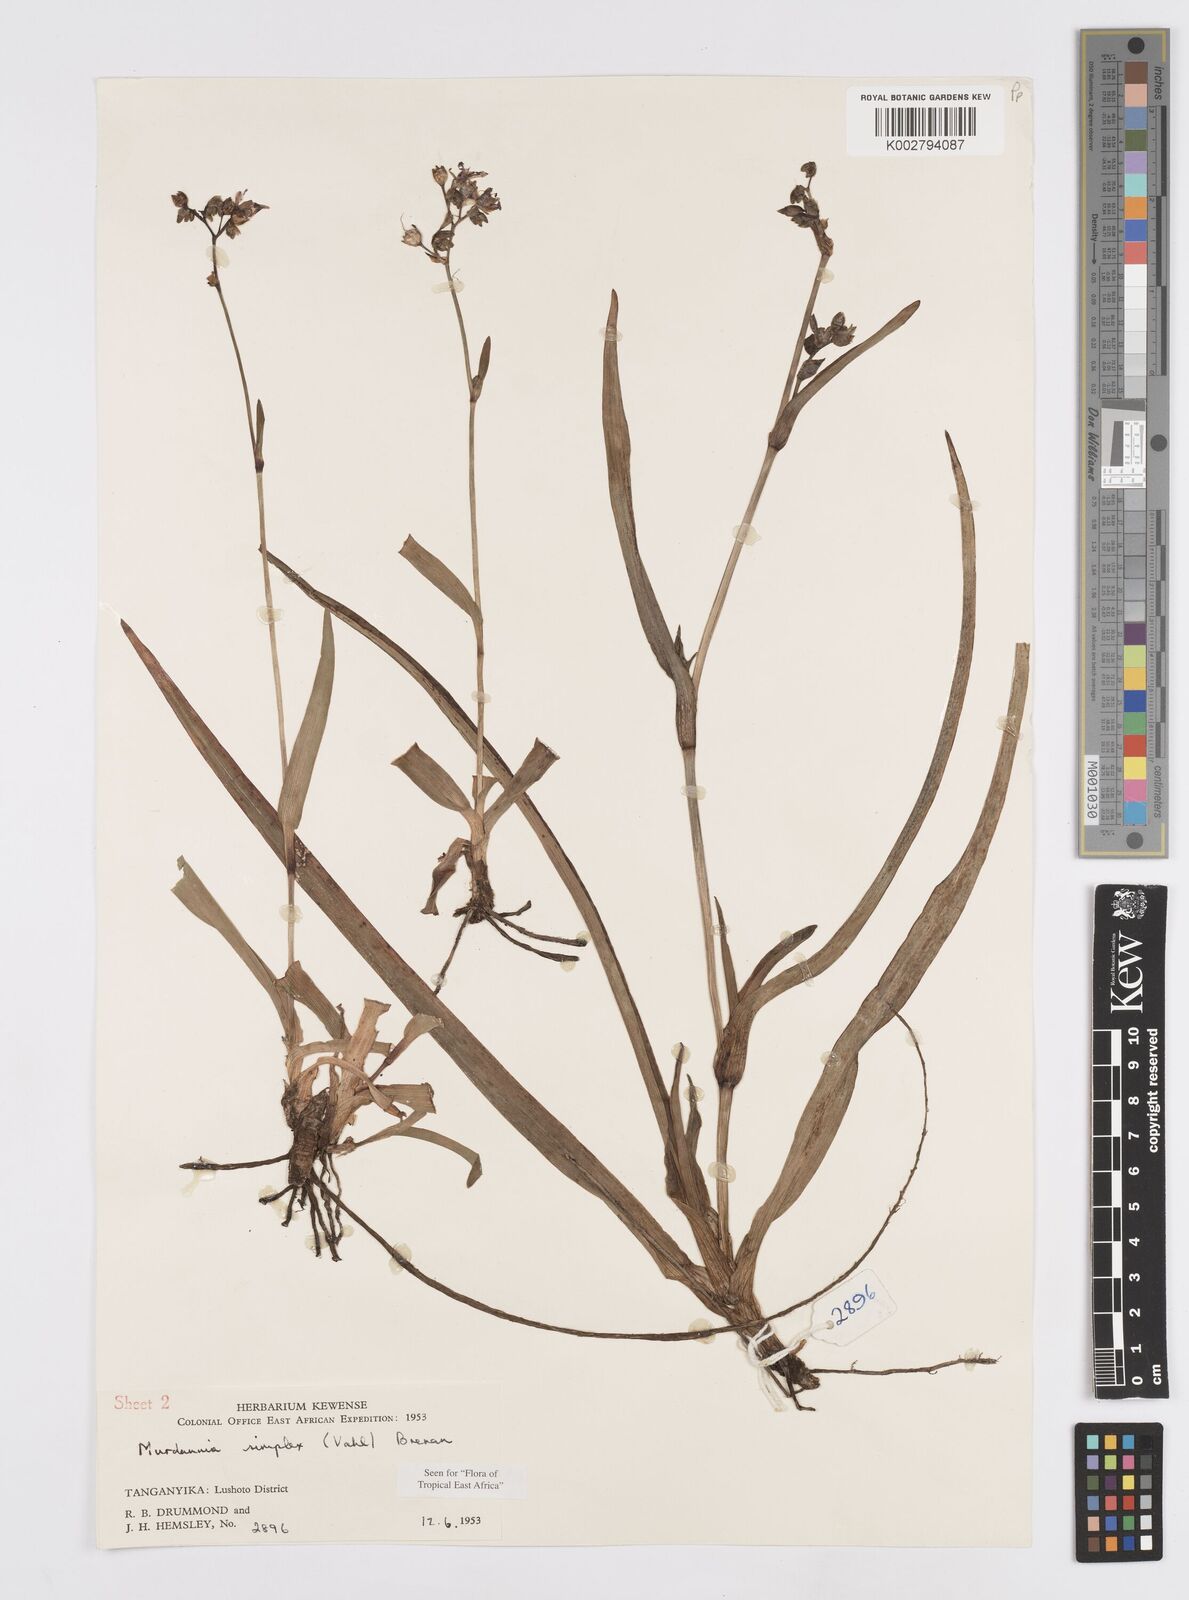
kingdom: Plantae
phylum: Tracheophyta
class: Liliopsida
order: Commelinales
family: Commelinaceae
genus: Murdannia
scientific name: Murdannia simplex
